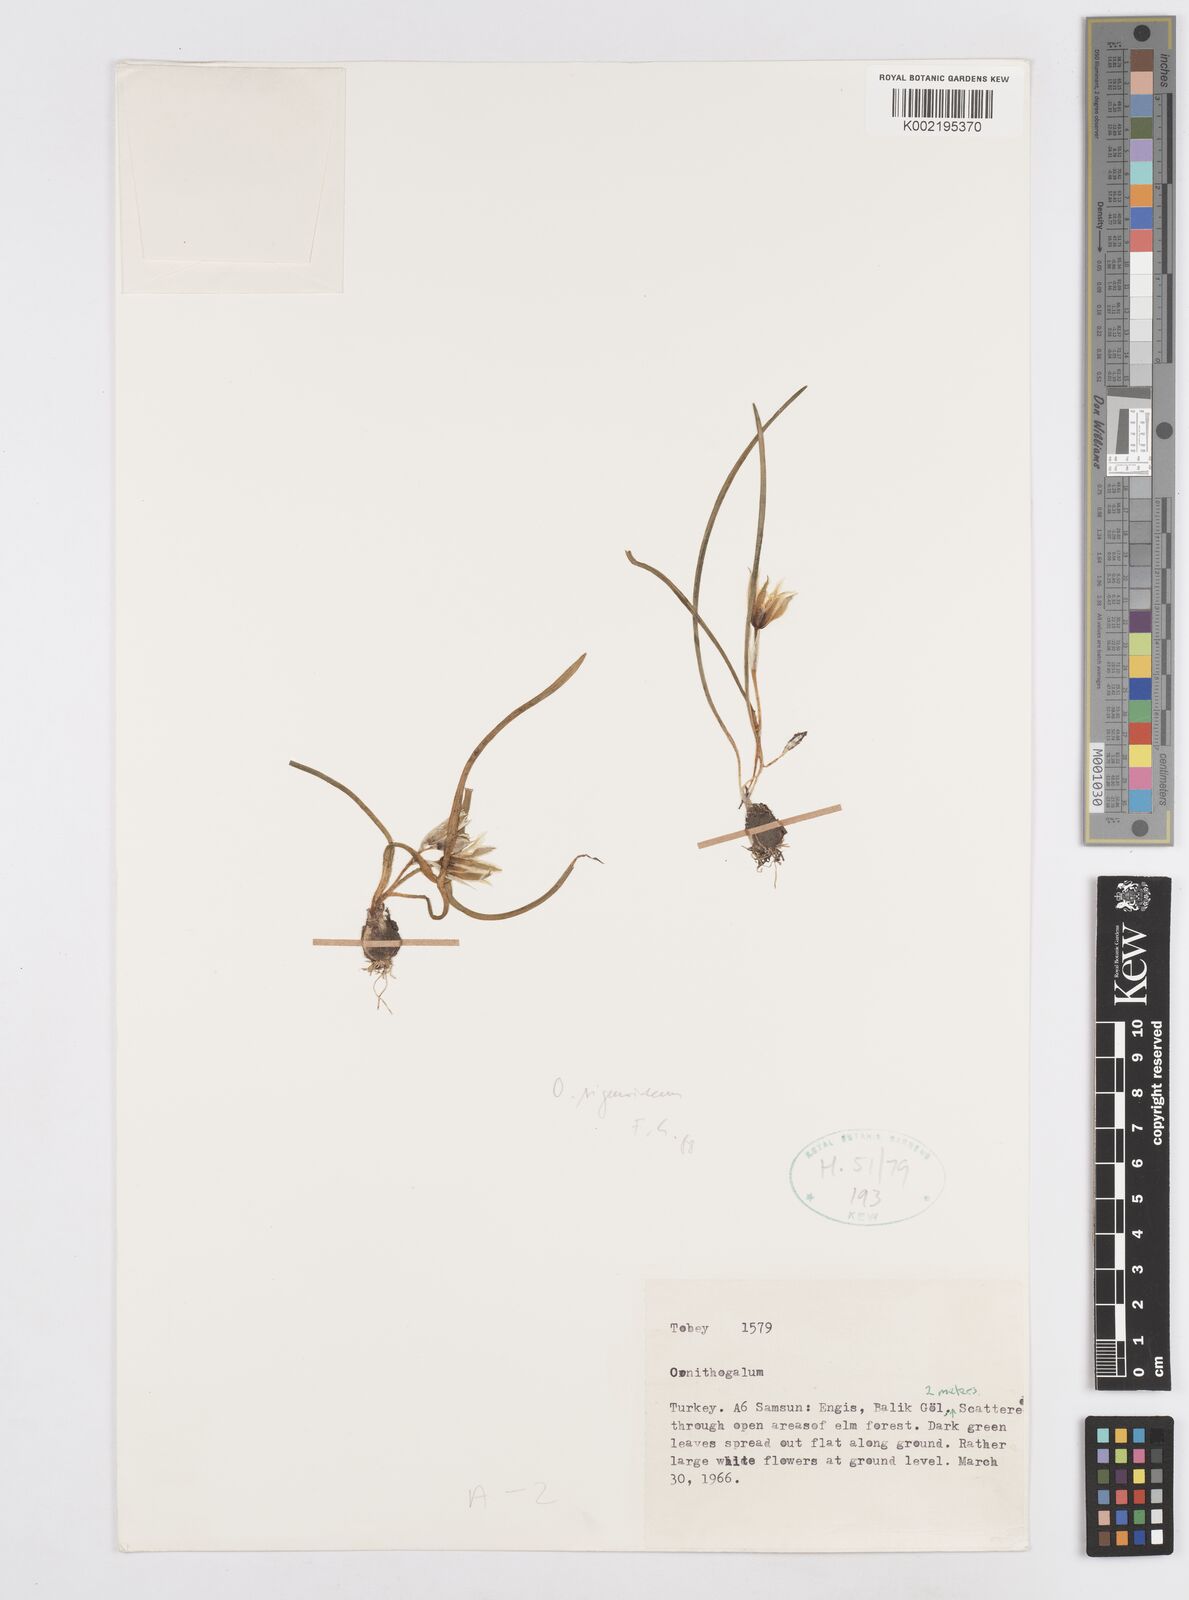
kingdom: Plantae
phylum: Tracheophyta
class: Liliopsida
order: Asparagales
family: Asparagaceae
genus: Ornithogalum
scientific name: Ornithogalum sigmoideum
